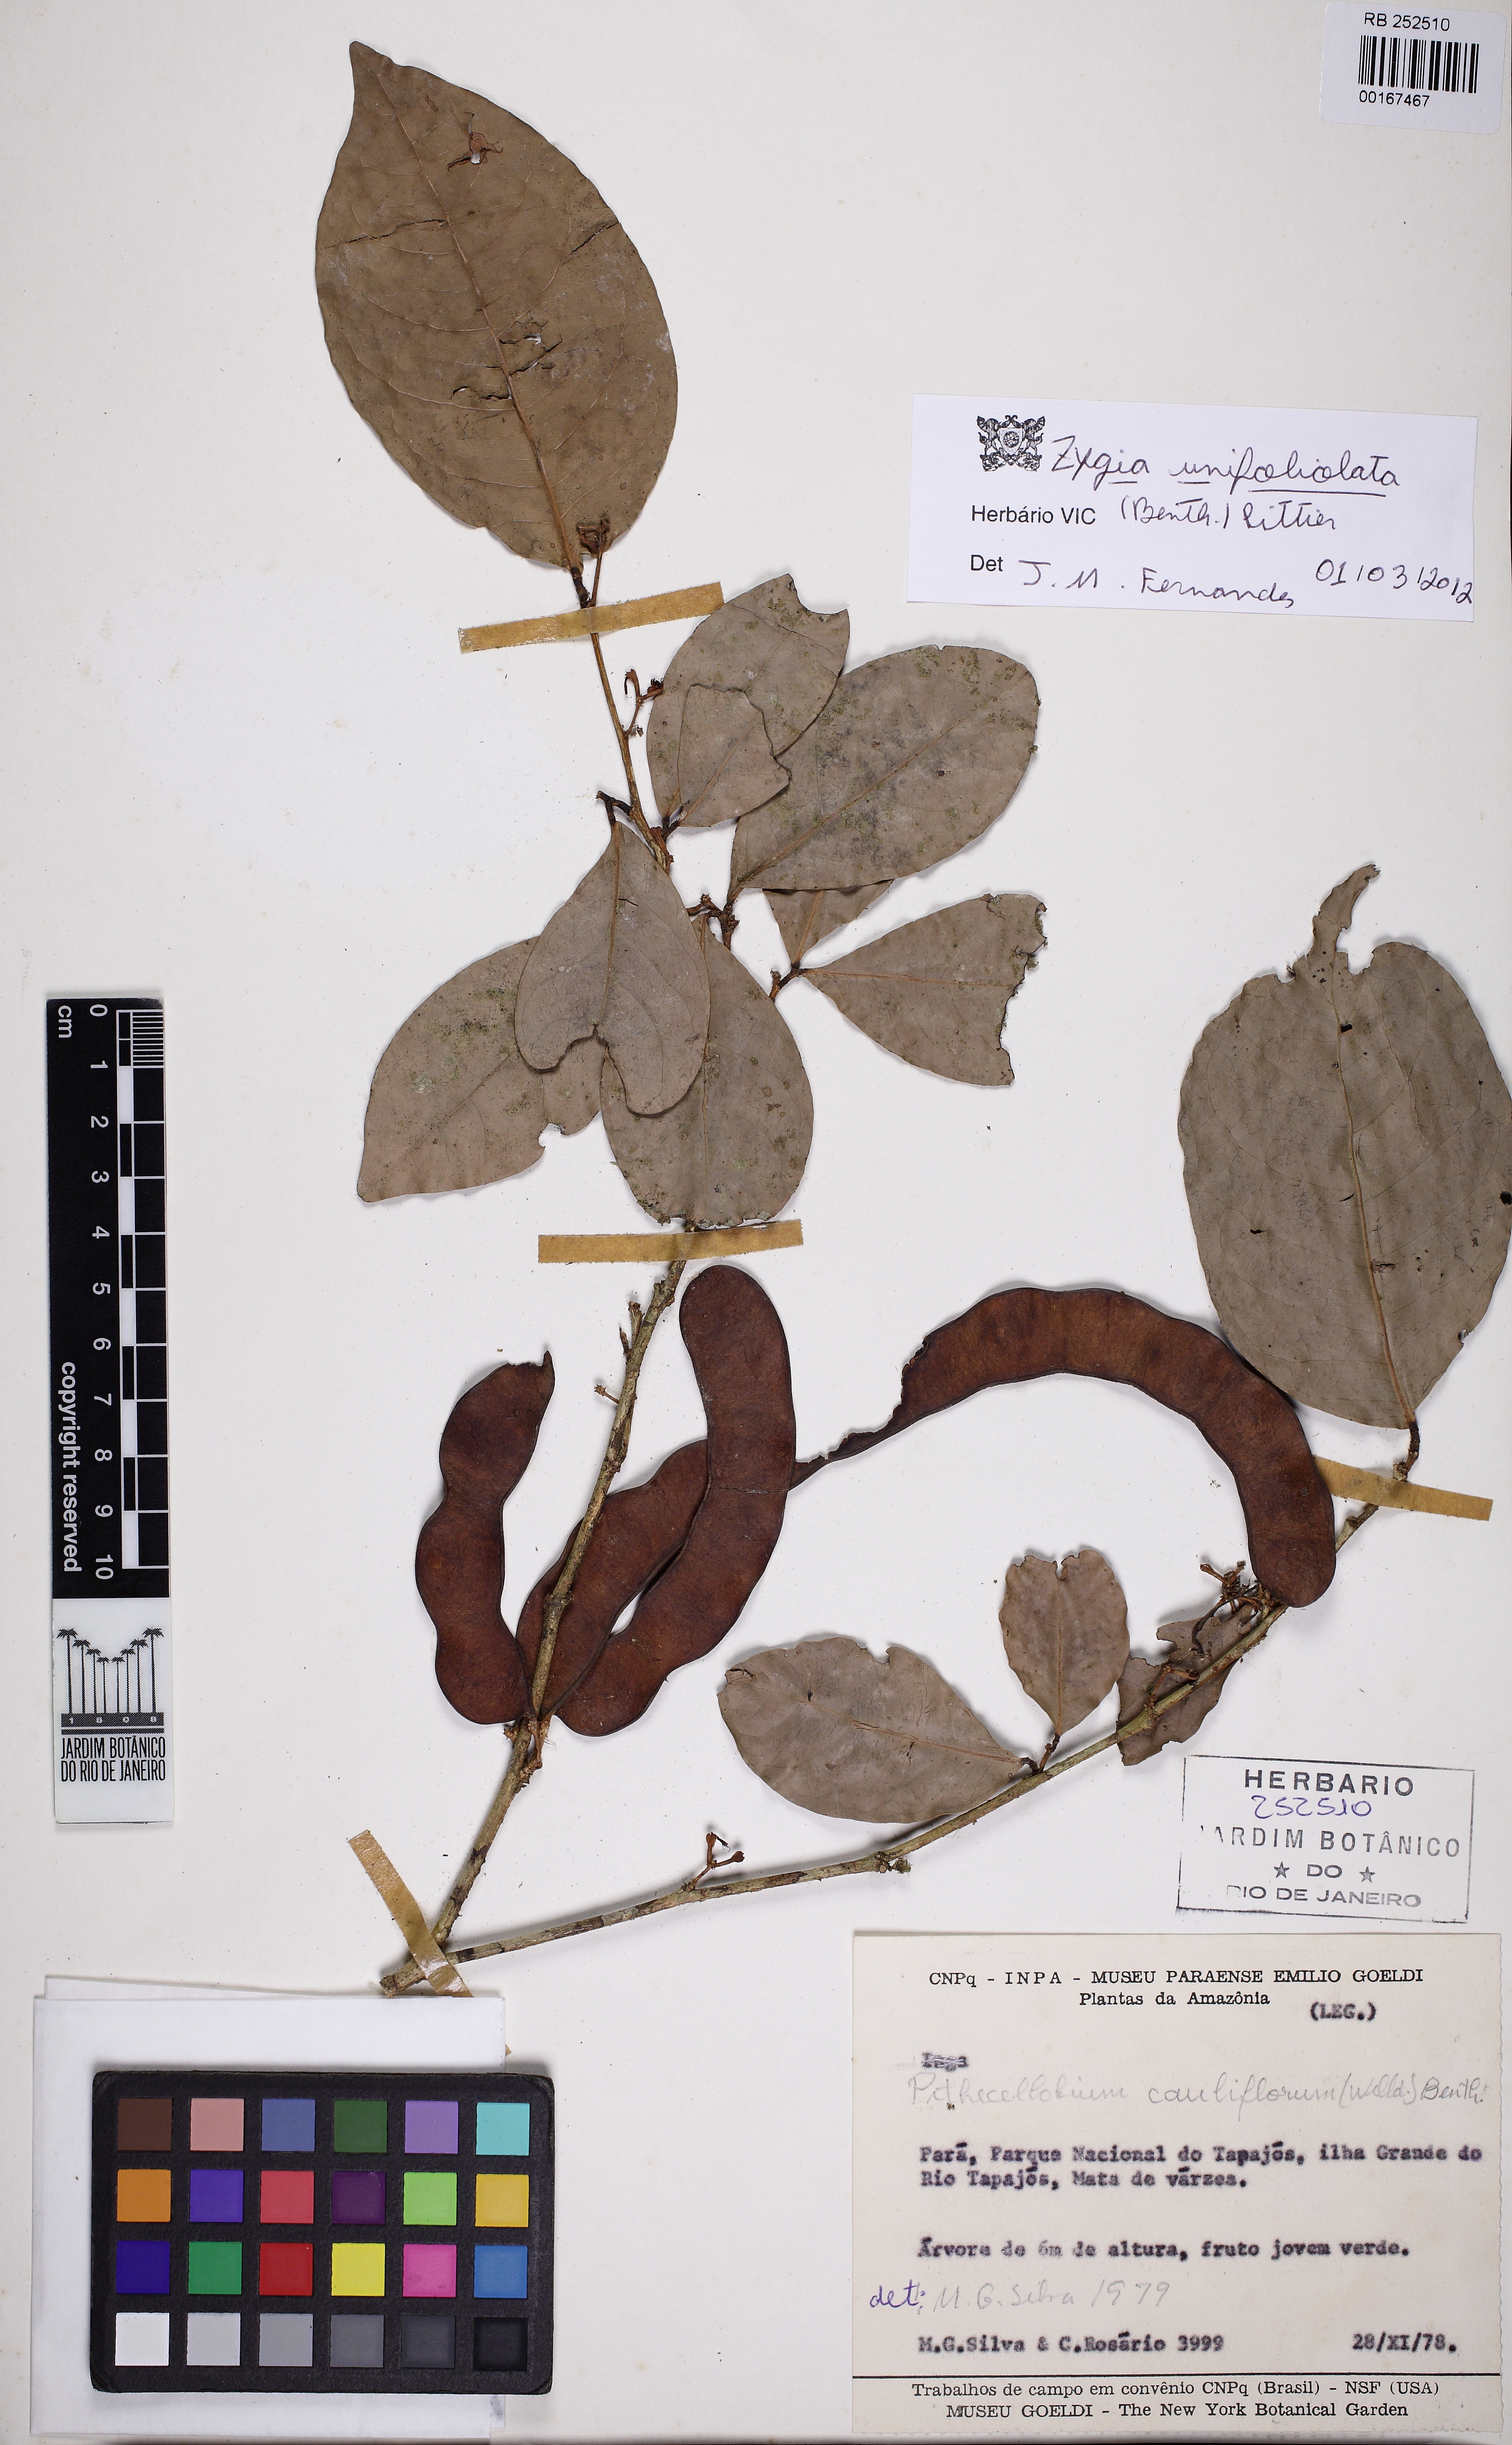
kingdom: Plantae
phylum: Tracheophyta
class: Magnoliopsida
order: Fabales
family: Fabaceae
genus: Zygia
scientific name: Zygia unifoliolata
